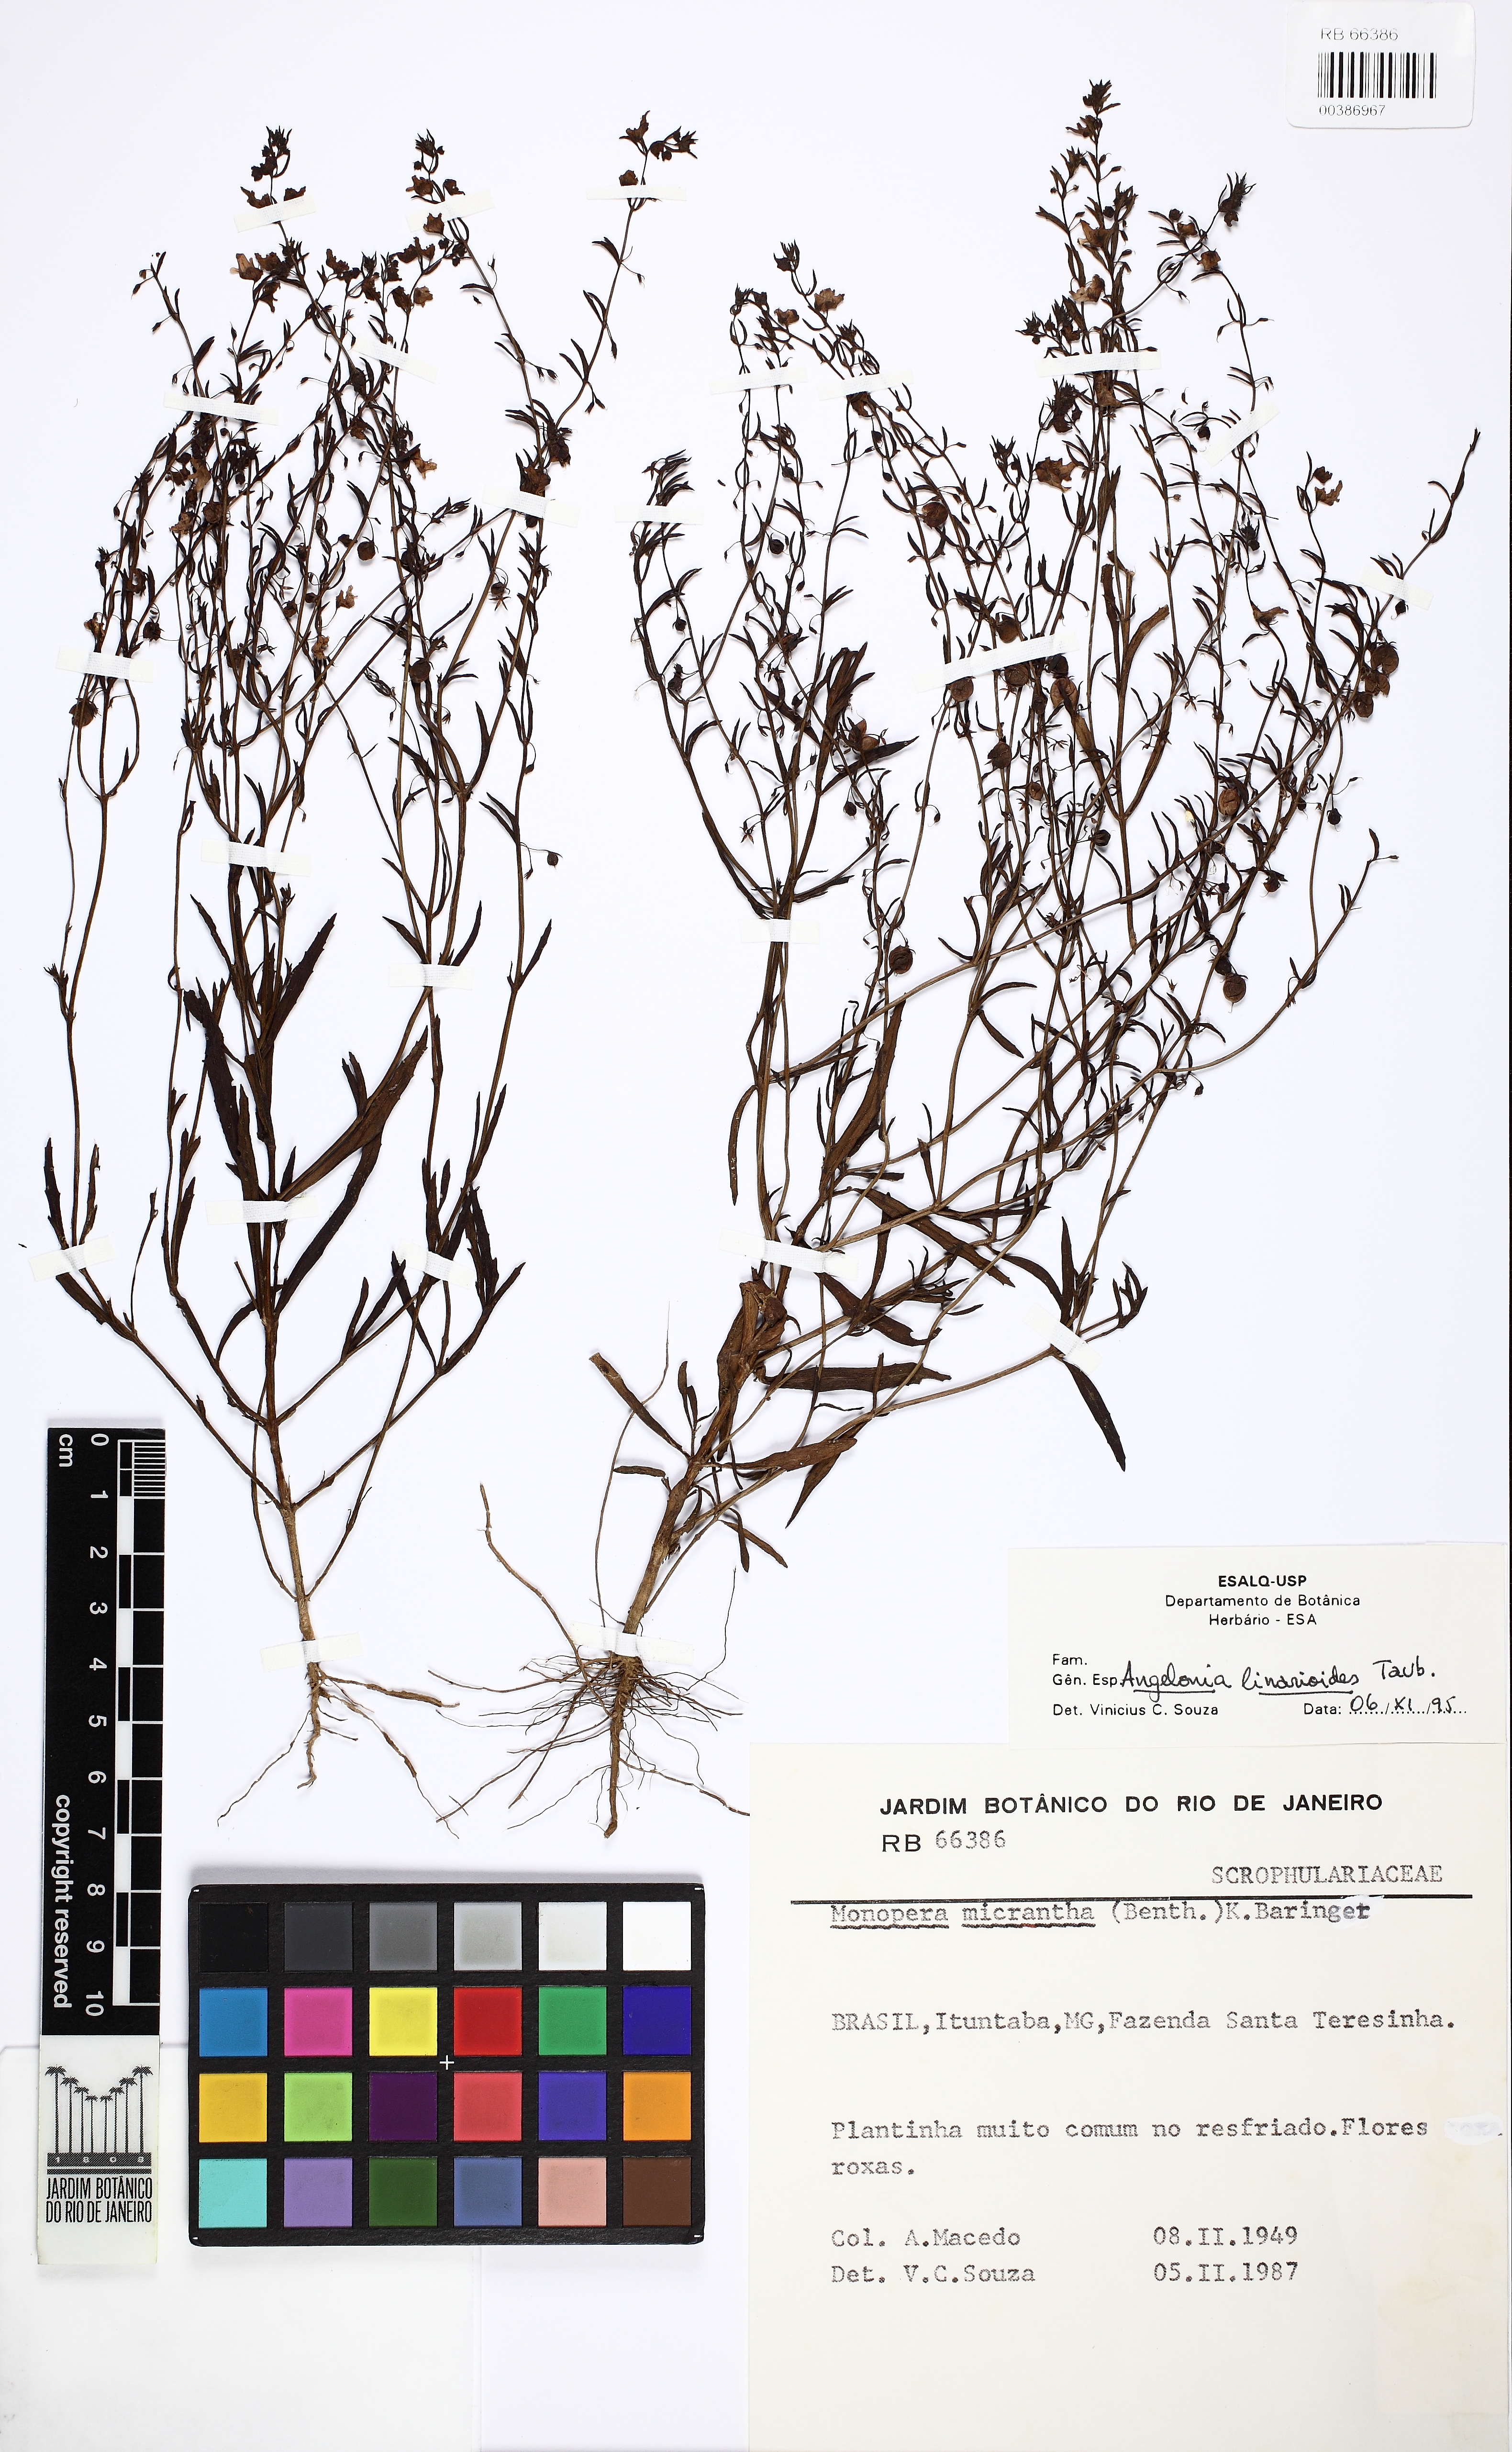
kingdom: Plantae
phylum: Tracheophyta
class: Magnoliopsida
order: Lamiales
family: Plantaginaceae
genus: Angelonia
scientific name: Angelonia linarioides
